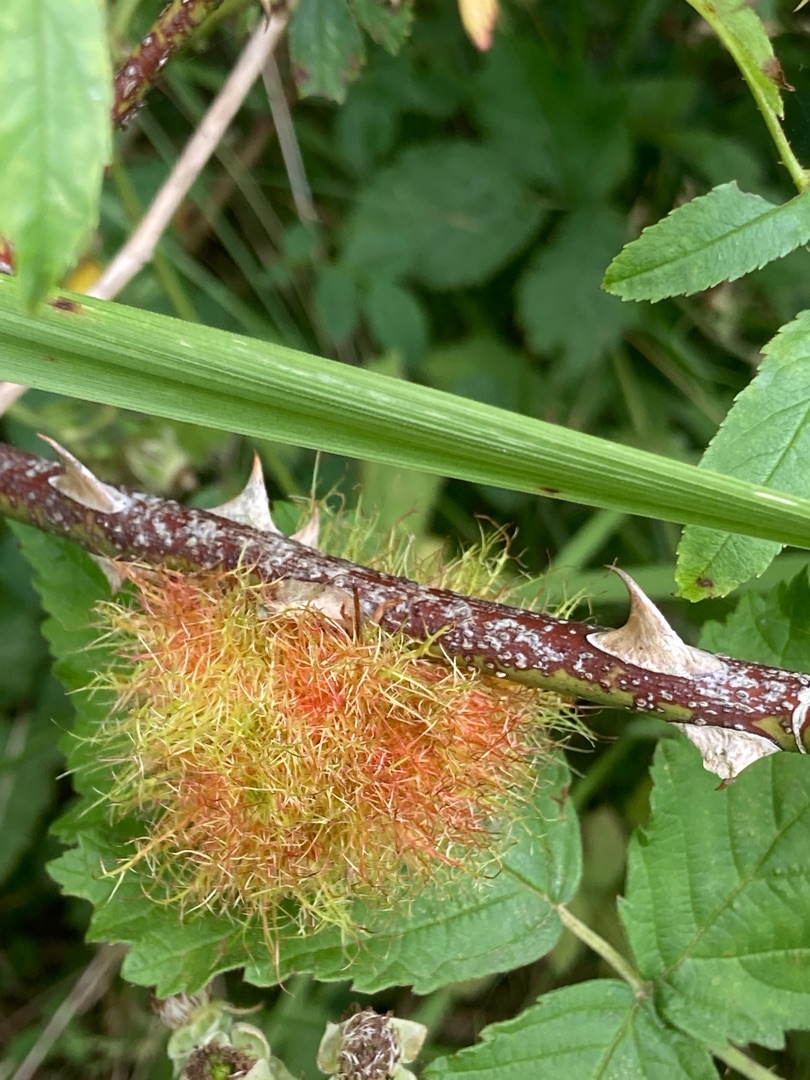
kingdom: Animalia
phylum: Arthropoda
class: Insecta
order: Hymenoptera
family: Cynipidae
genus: Diplolepis
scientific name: Diplolepis rosae
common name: Bedeguargalhveps
